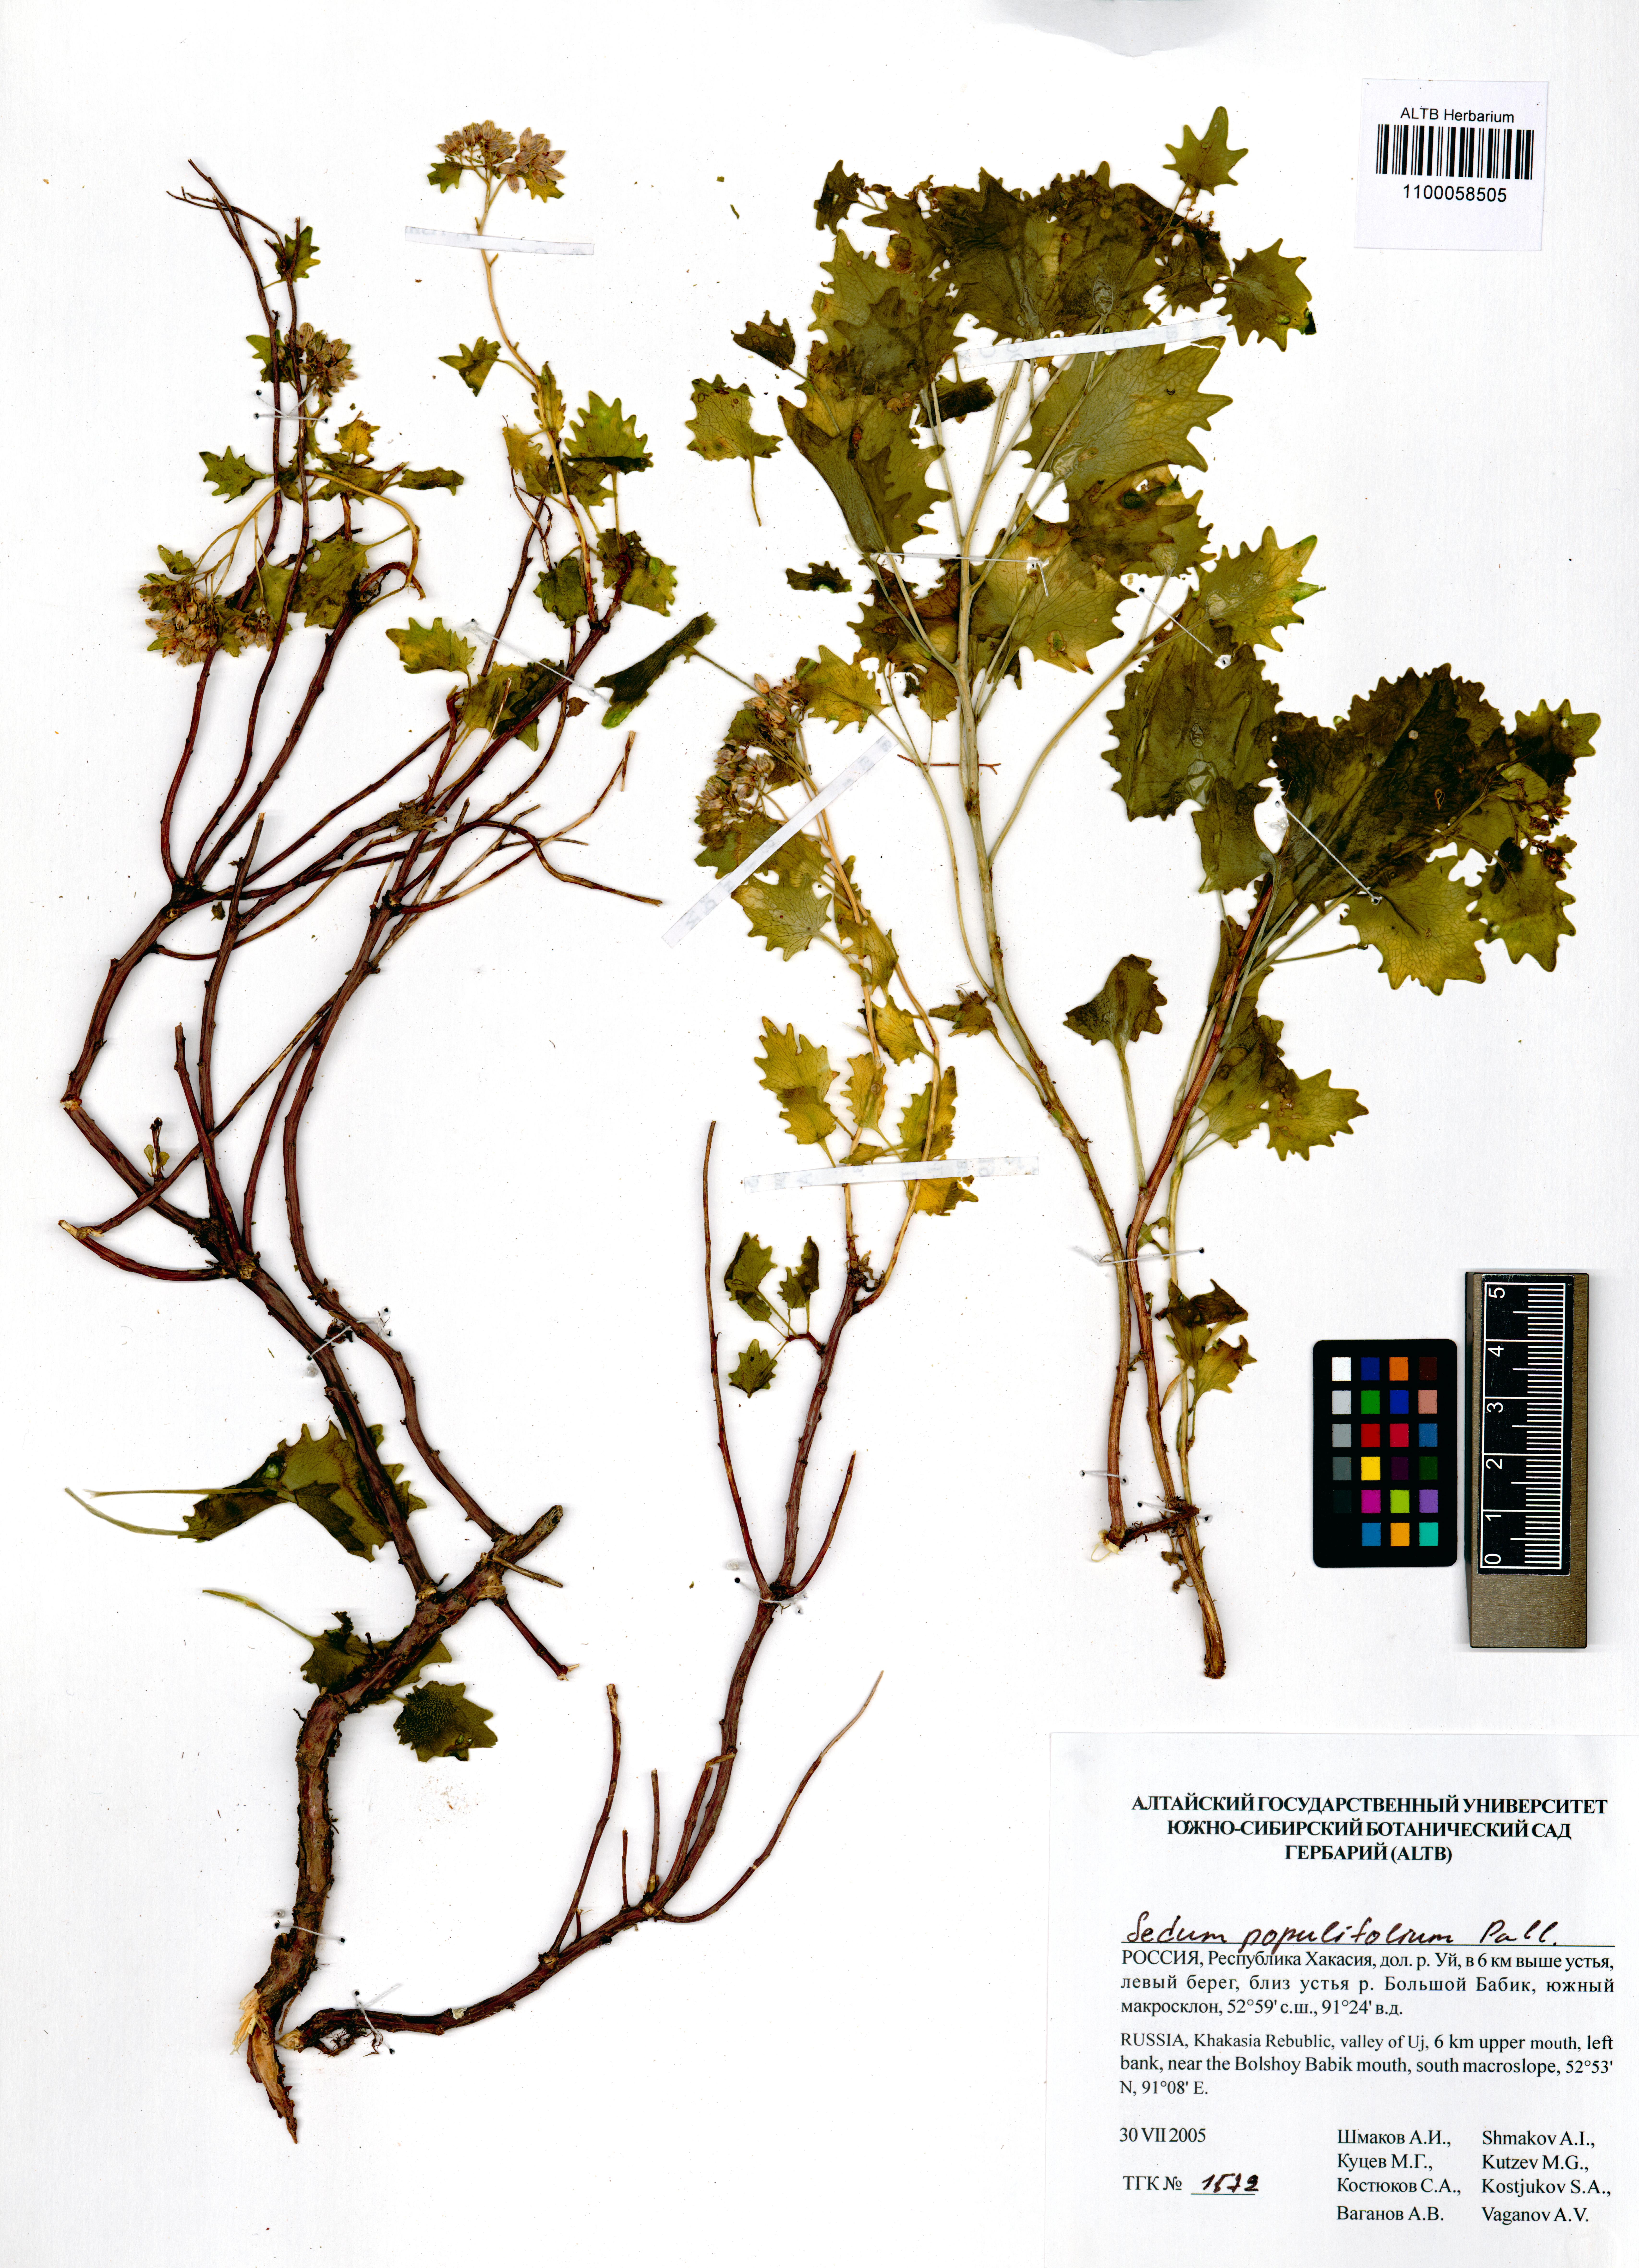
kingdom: Plantae
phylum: Tracheophyta
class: Magnoliopsida
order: Saxifragales
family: Crassulaceae
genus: Hylotelephium
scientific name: Hylotelephium populifolium
